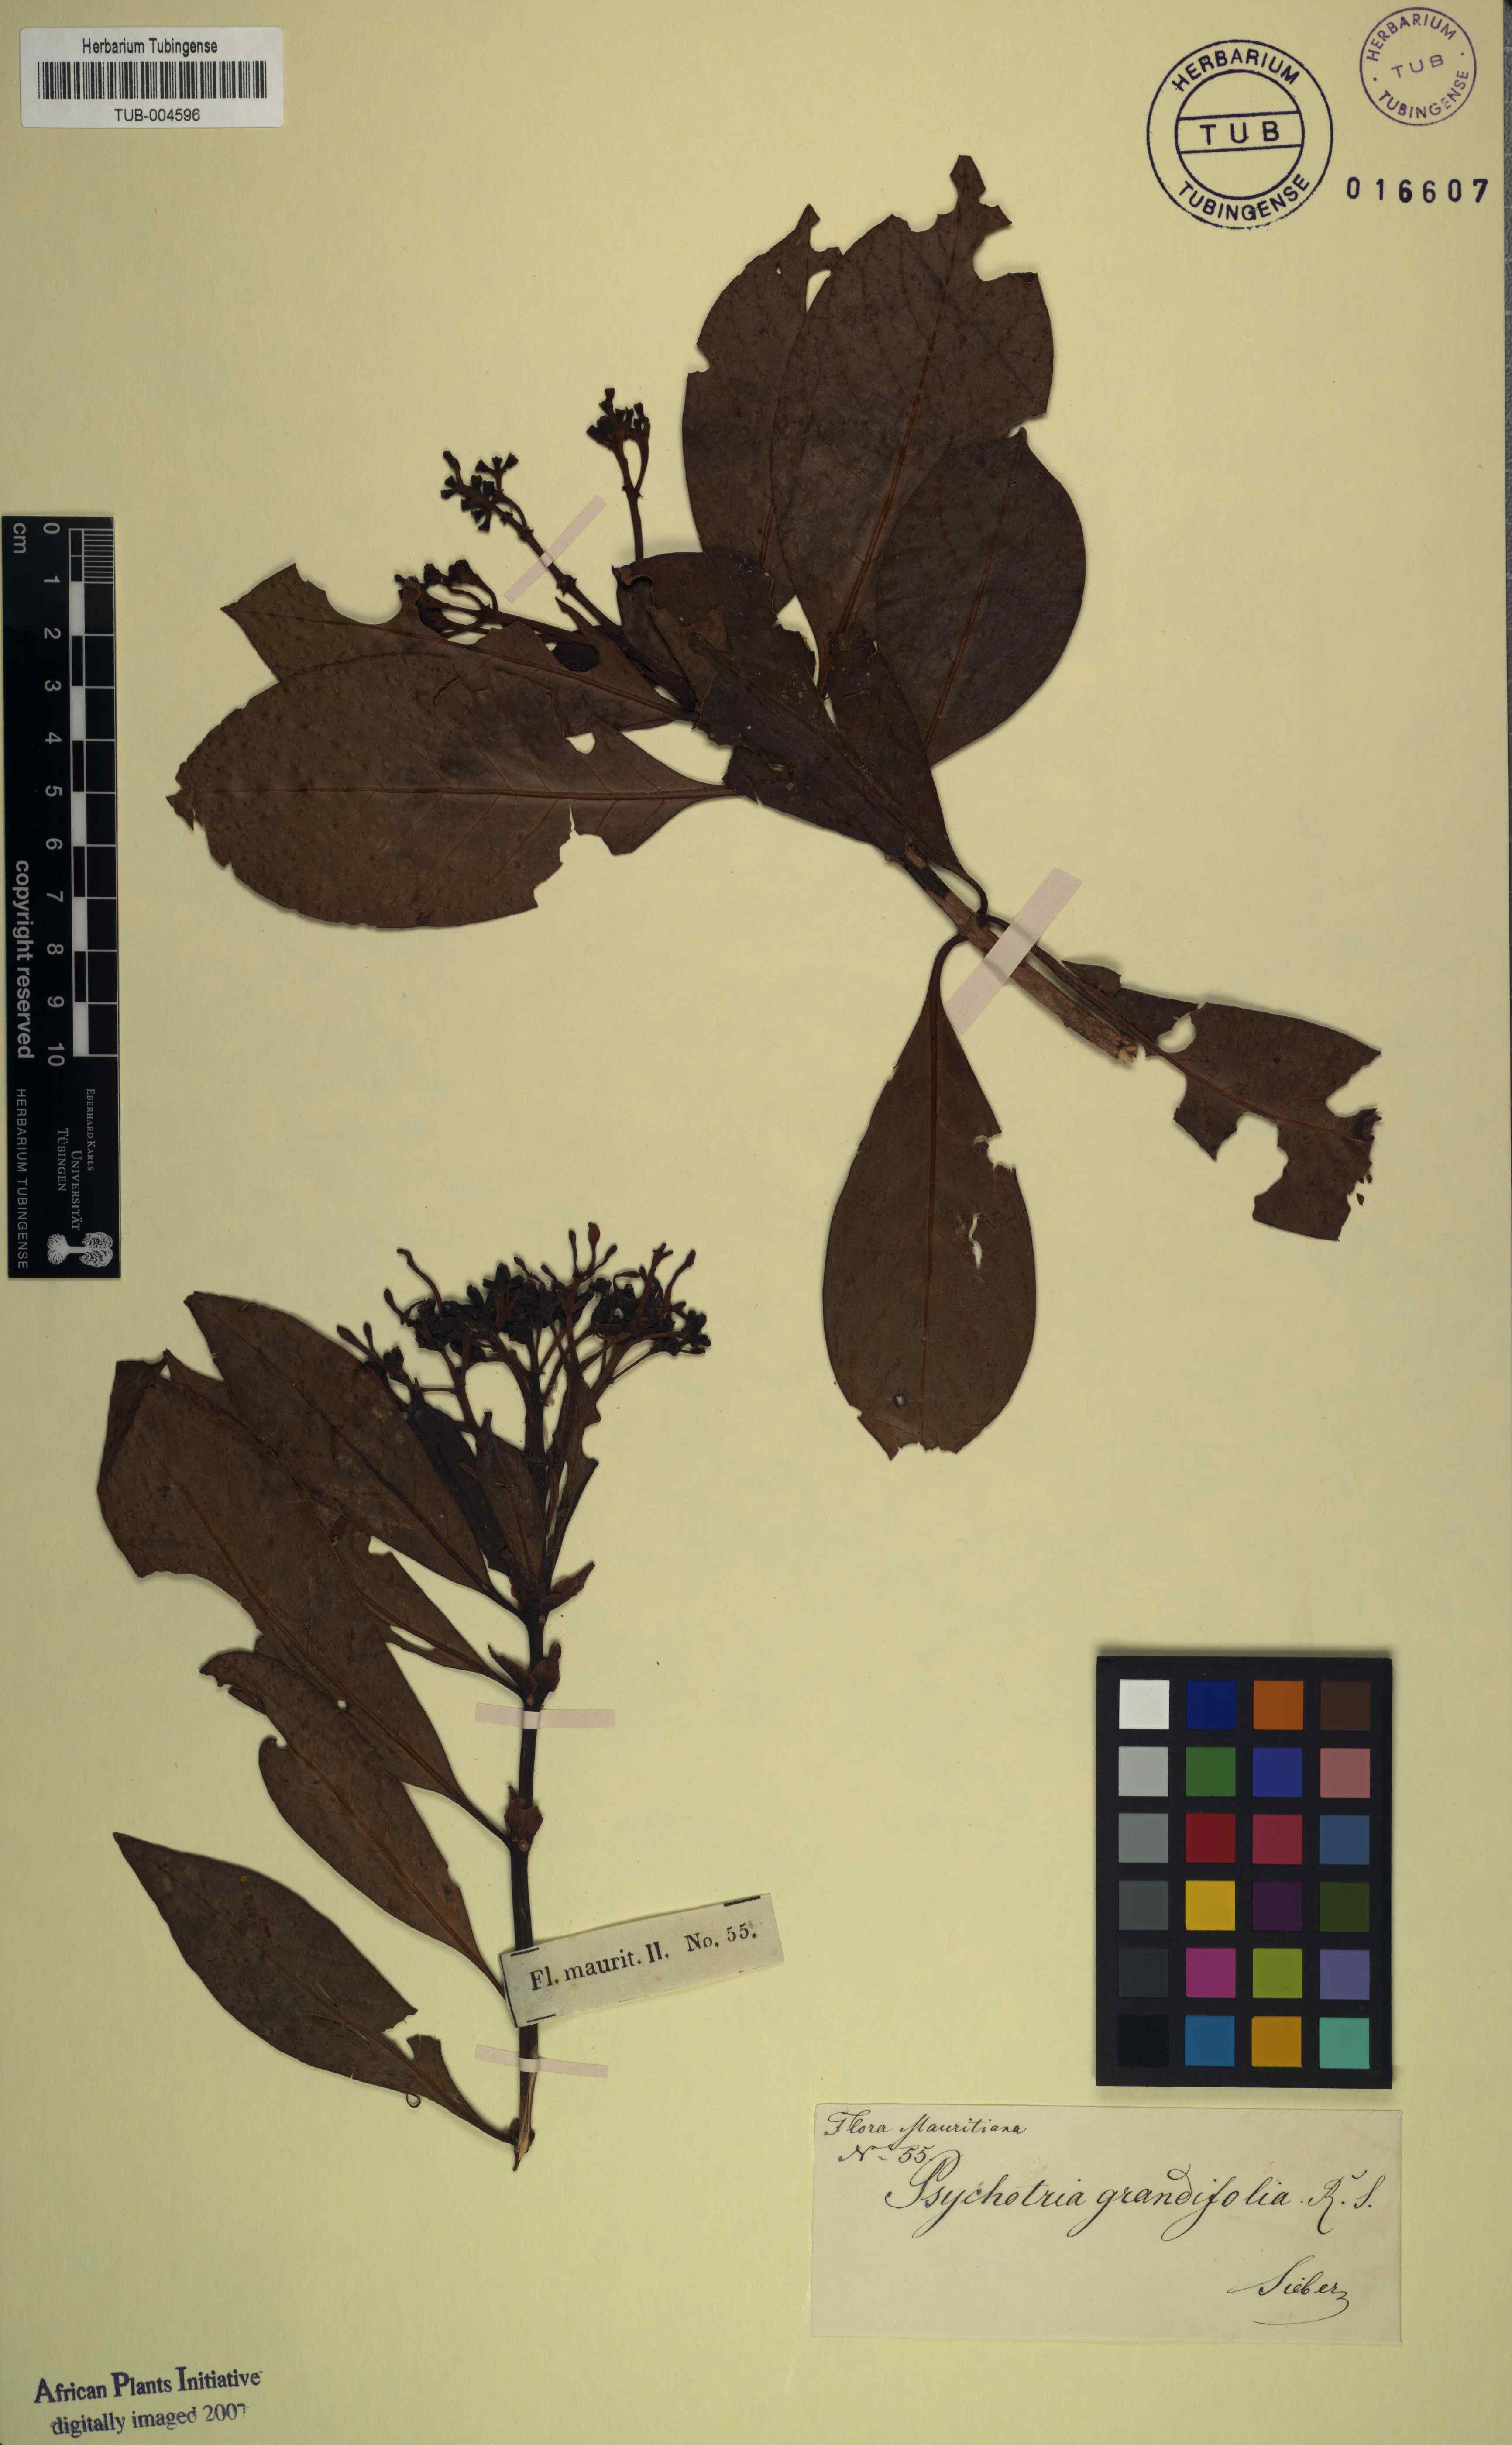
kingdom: Plantae
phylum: Tracheophyta
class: Magnoliopsida
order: Gentianales
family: Rubiaceae
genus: Chassalia
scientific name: Chassalia grandifolia
